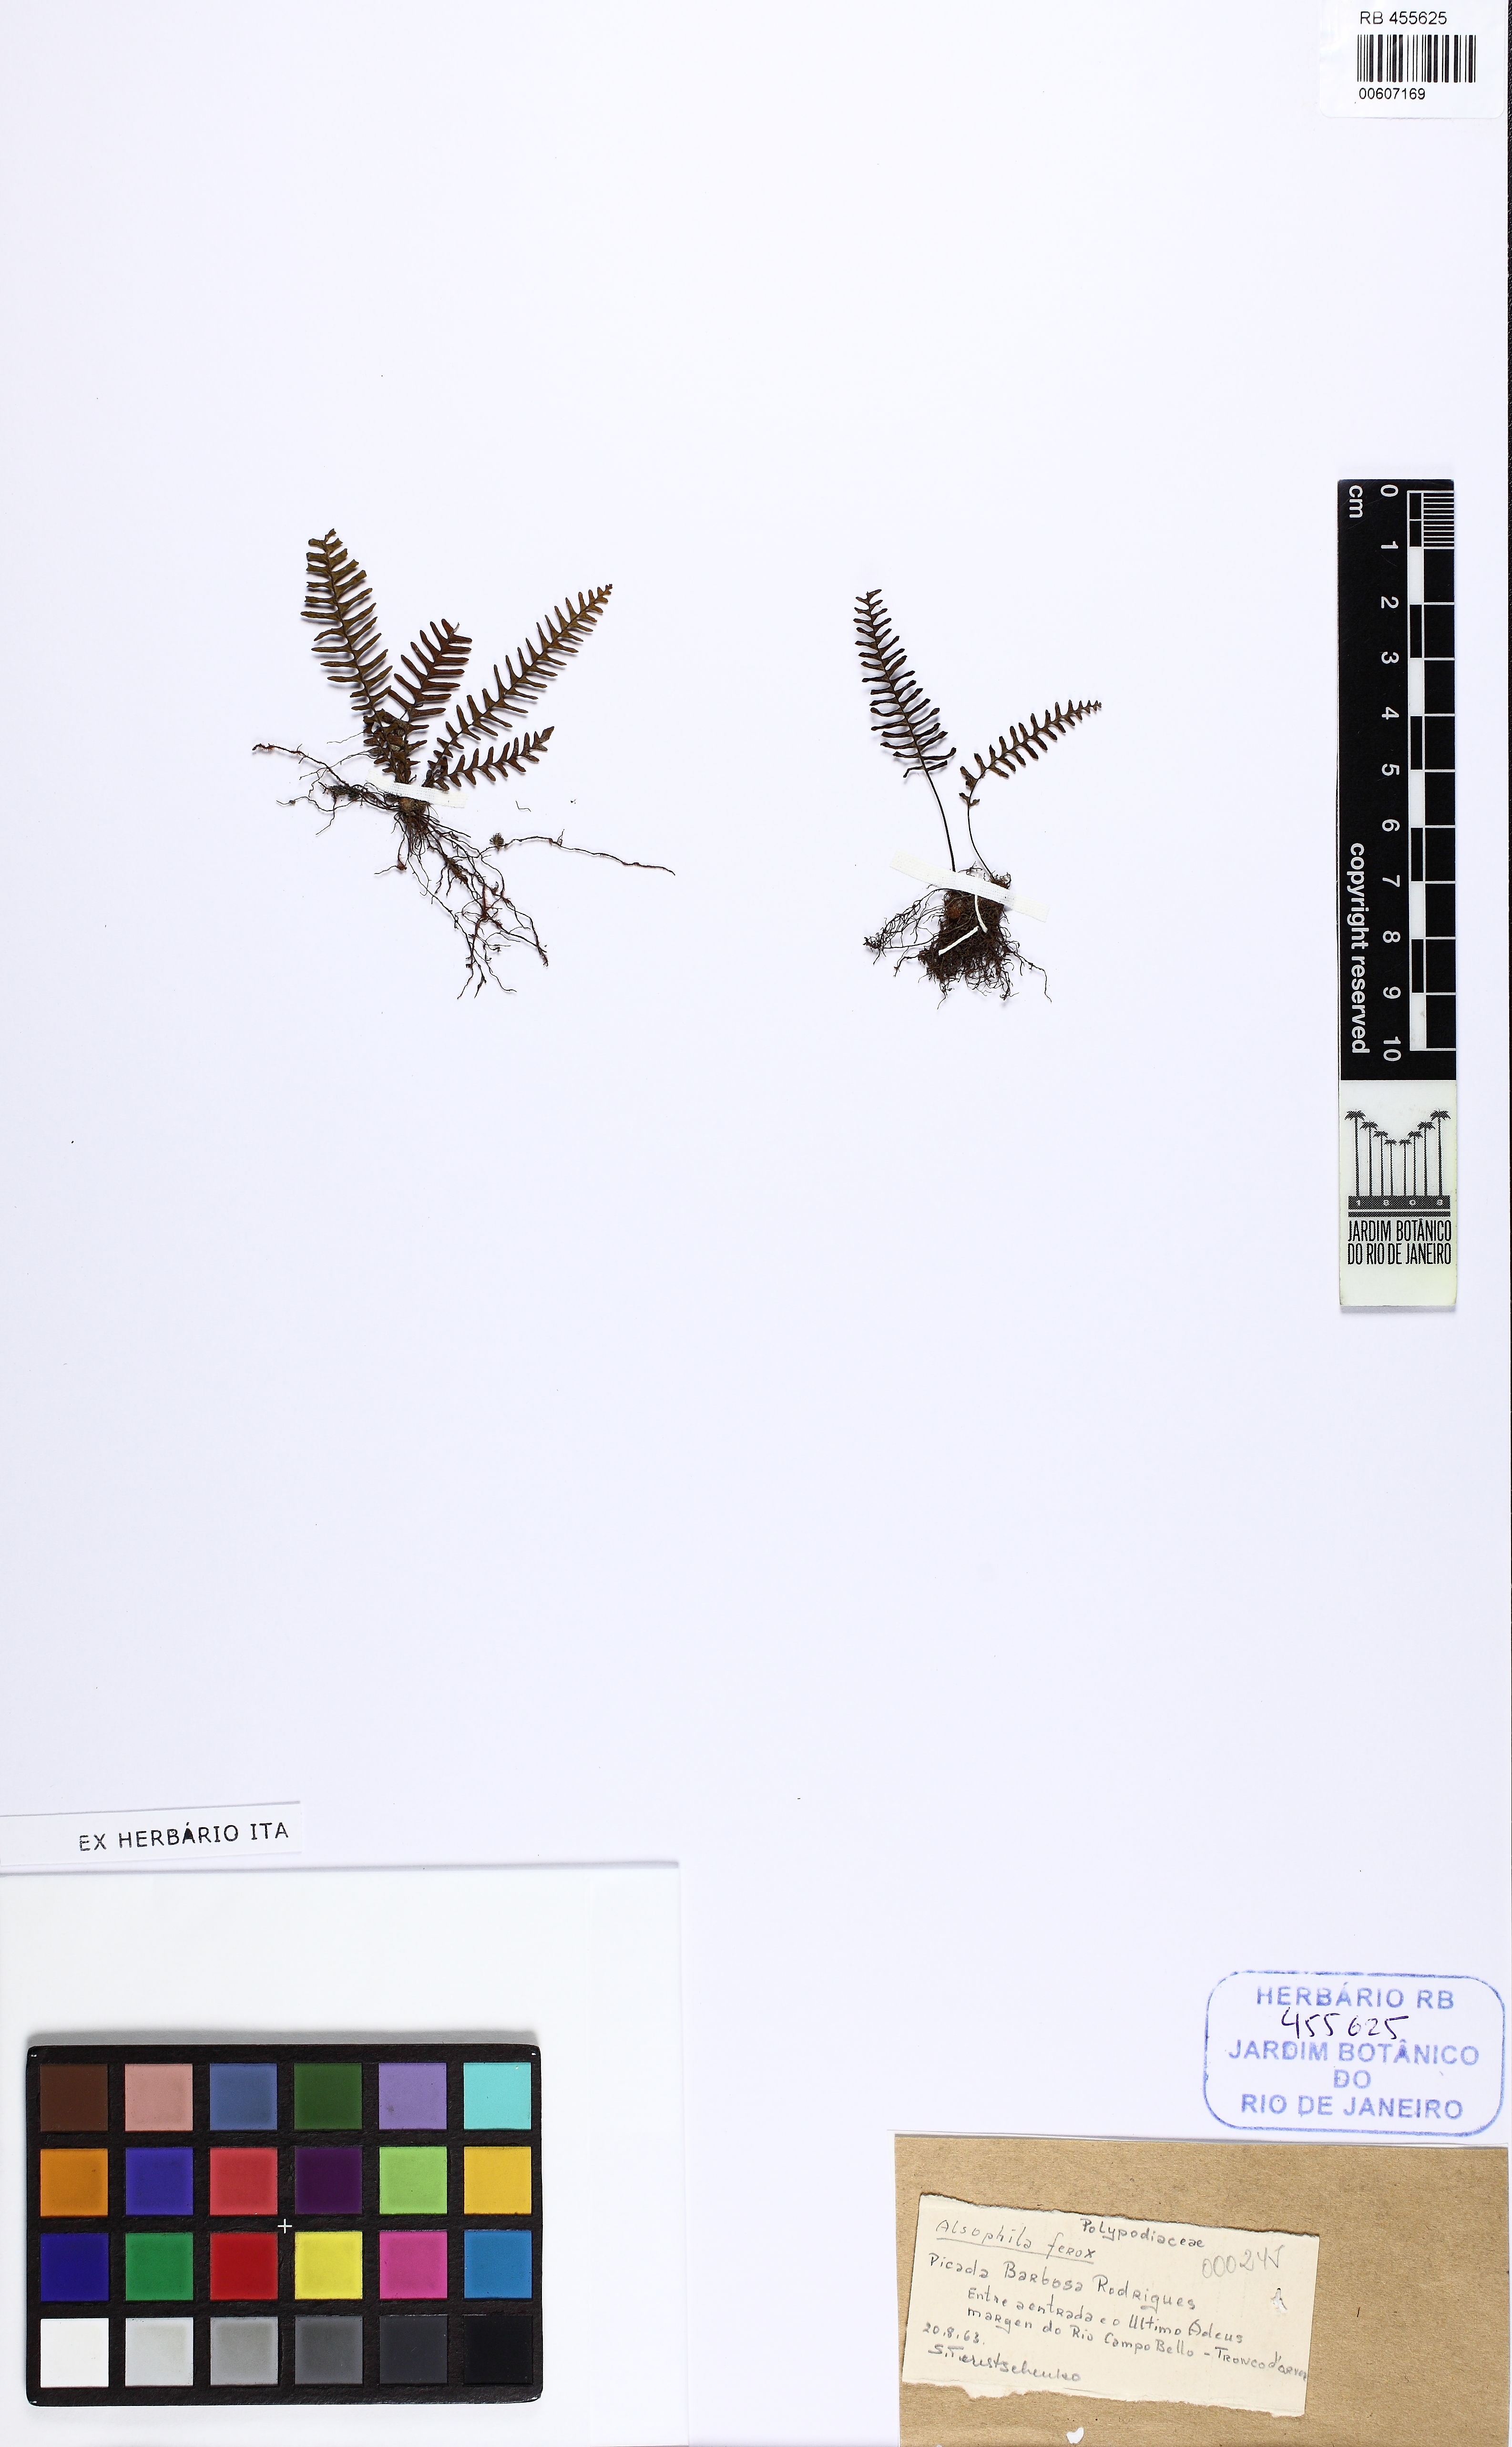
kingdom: Plantae
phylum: Tracheophyta
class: Polypodiopsida
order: Polypodiales
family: Polypodiaceae
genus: Pecluma
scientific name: Pecluma sicca
